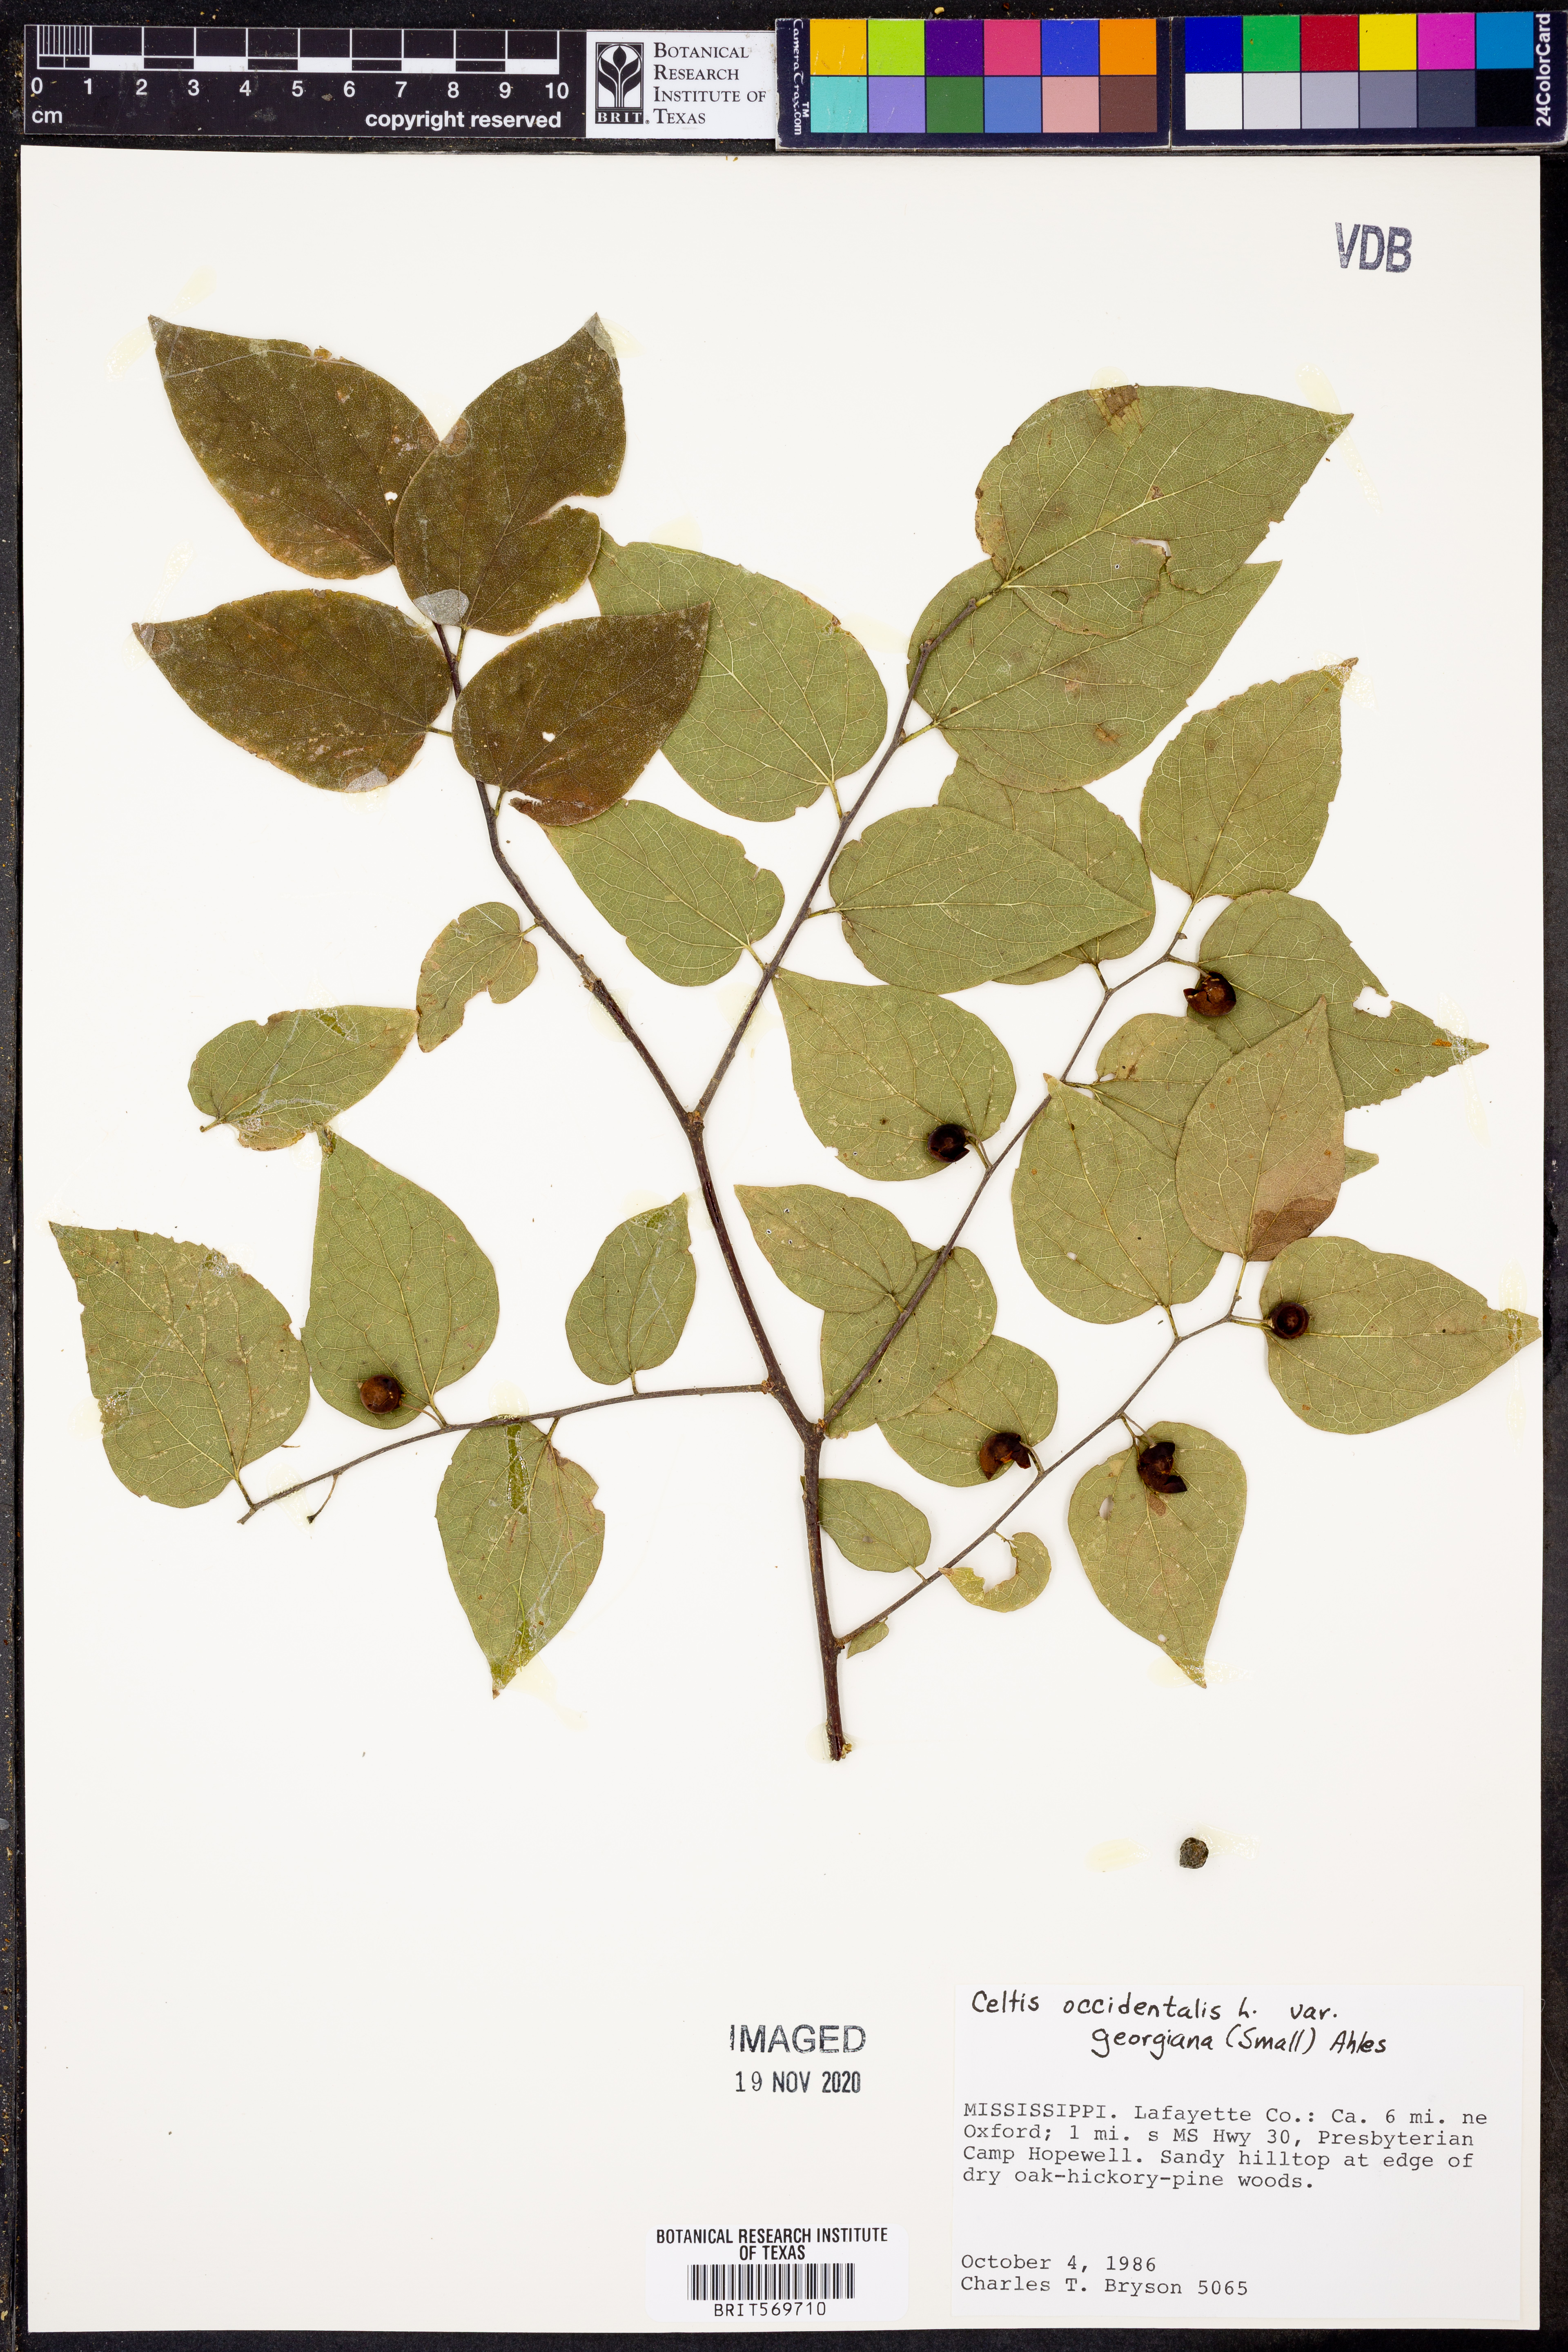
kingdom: Plantae
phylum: Tracheophyta
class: Magnoliopsida
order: Rosales
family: Cannabaceae
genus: Celtis
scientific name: Celtis tenuifolia
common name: Georgia hackberry
